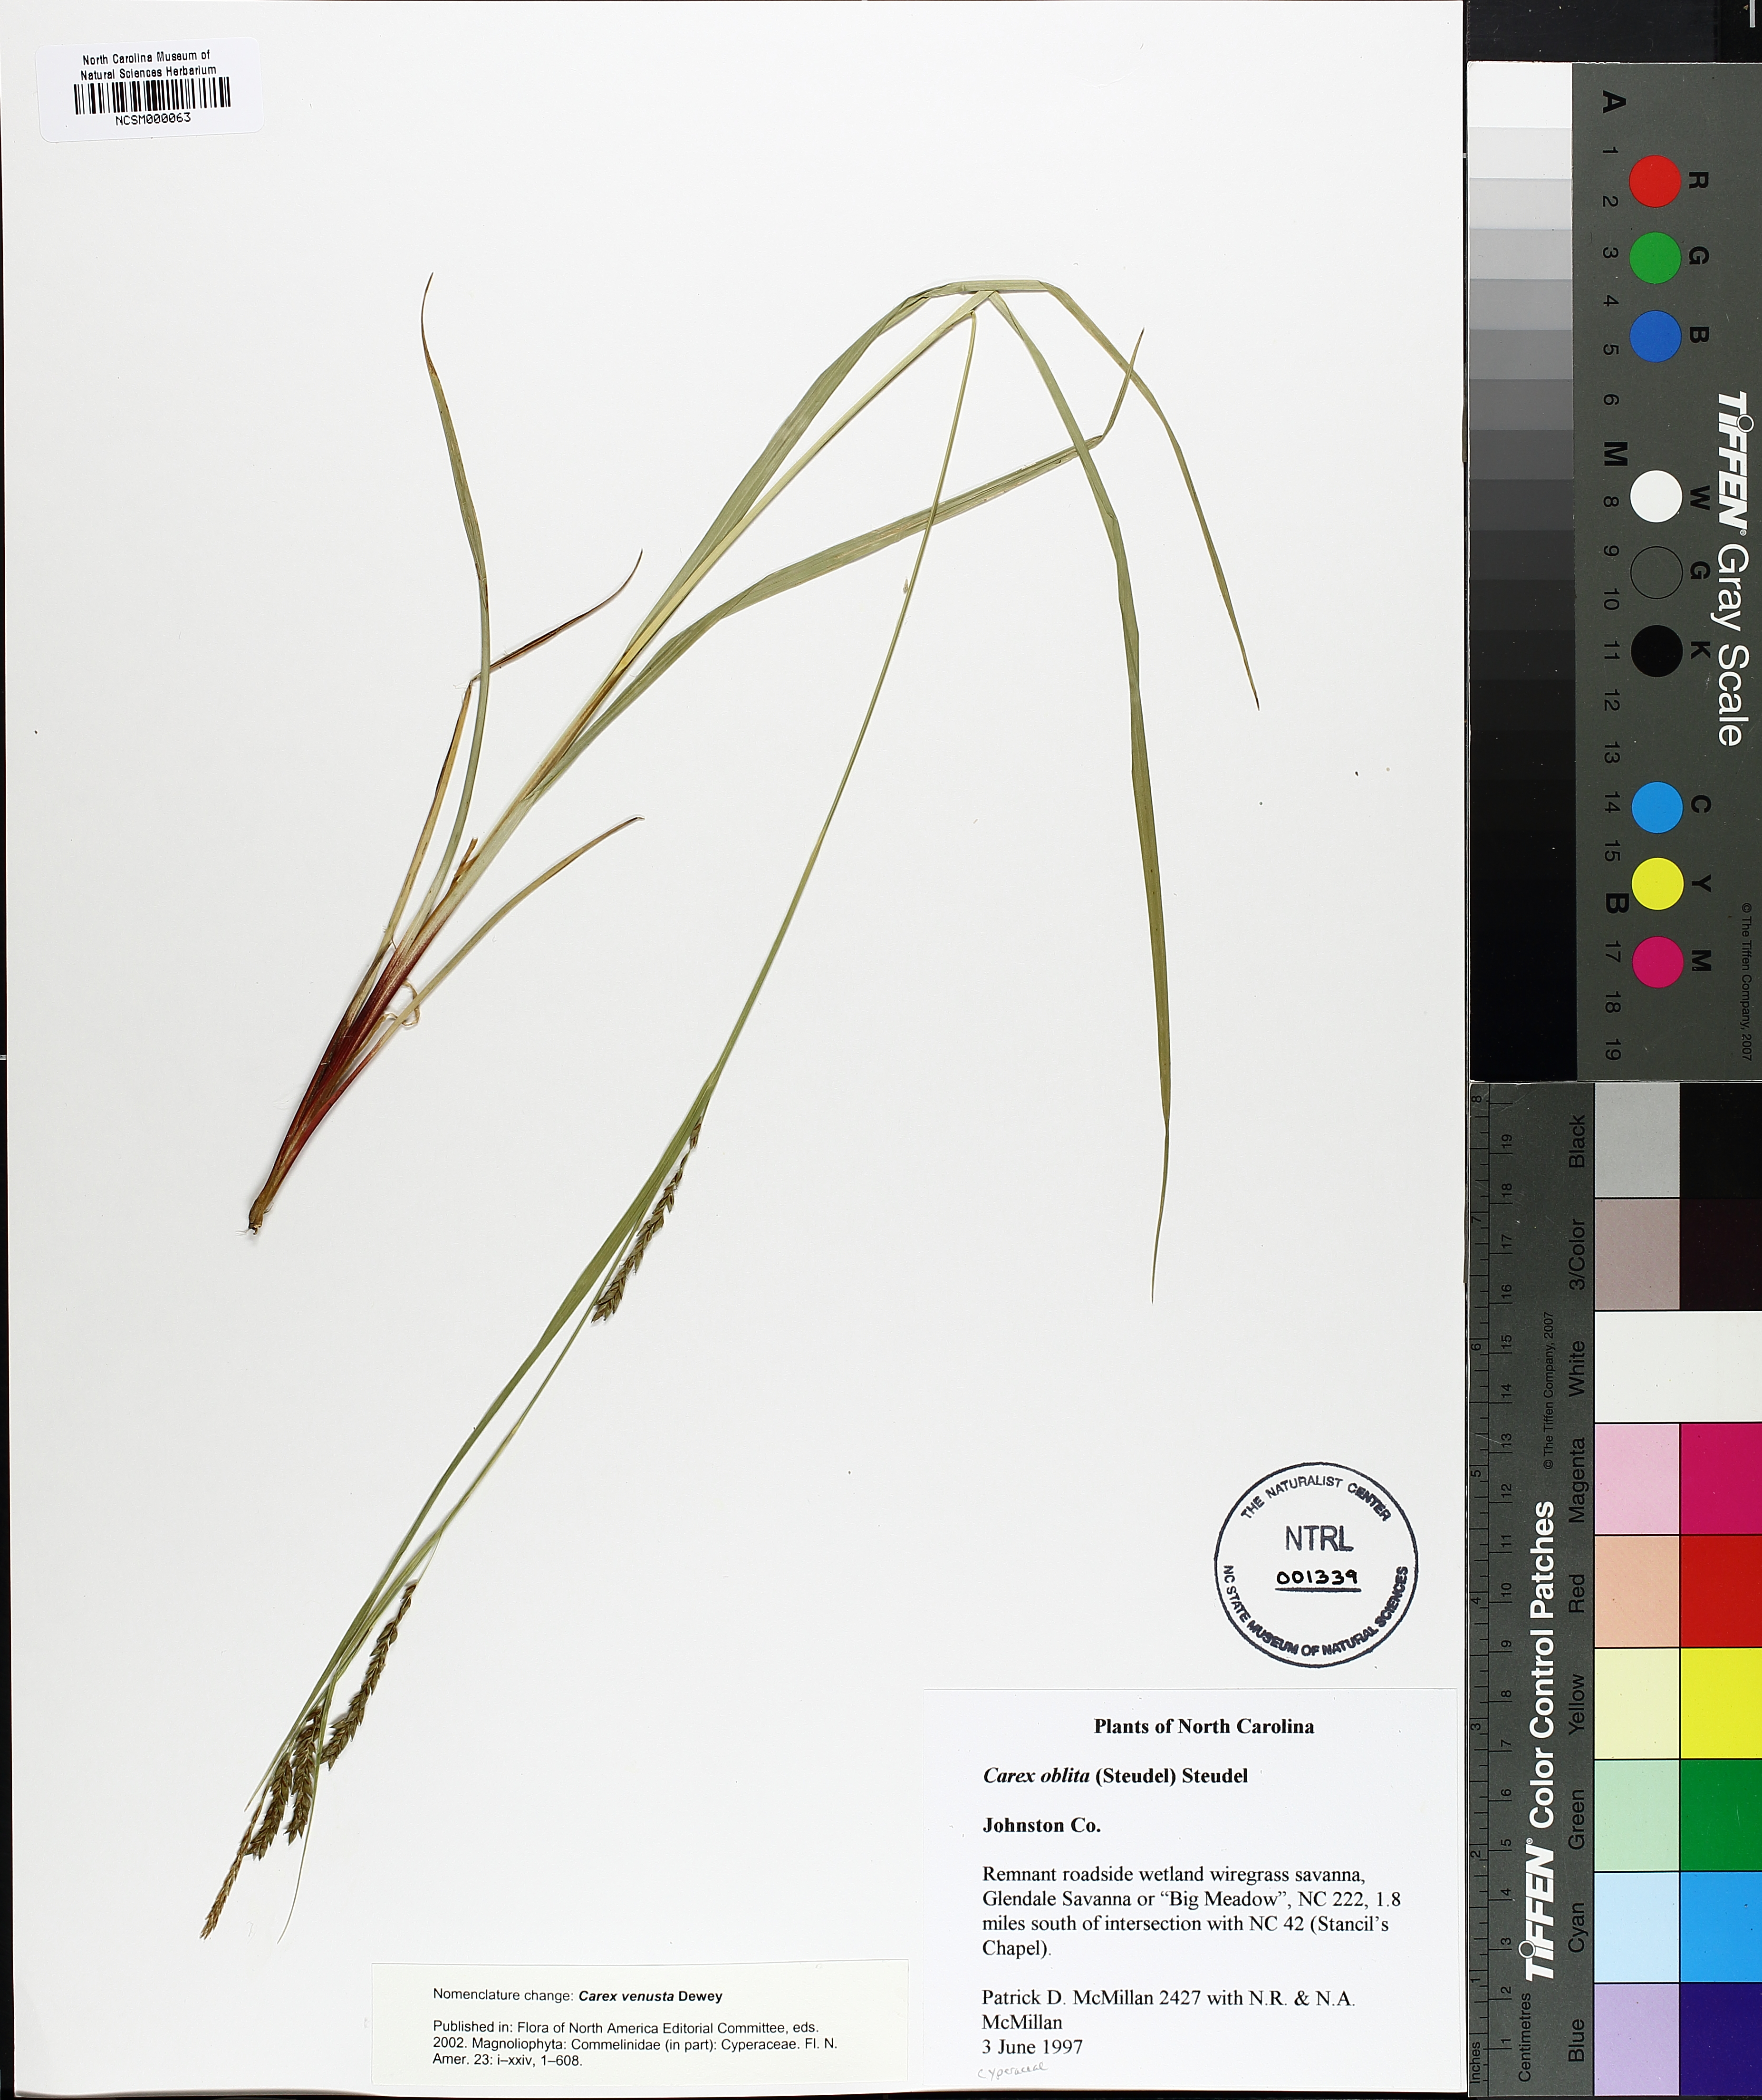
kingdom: Plantae
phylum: Tracheophyta
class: Liliopsida
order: Poales
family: Cyperaceae
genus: Carex
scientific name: Carex venusta
